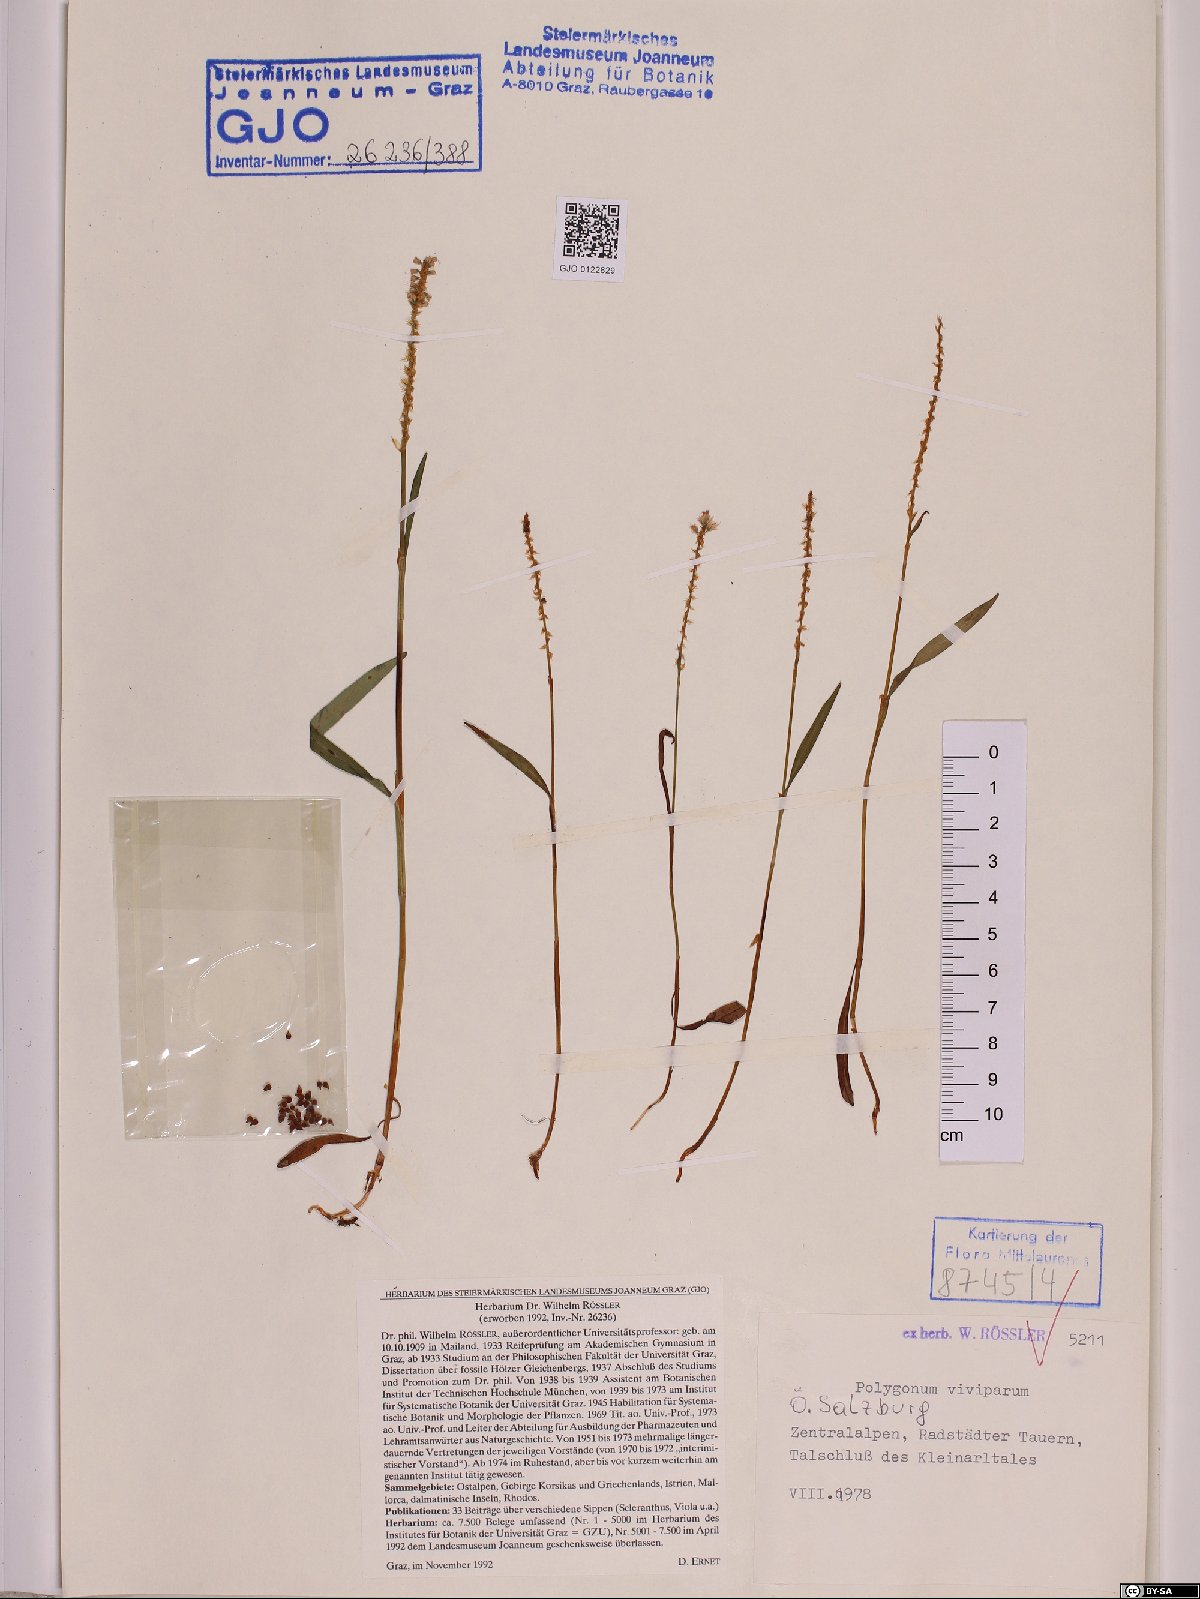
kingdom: Plantae
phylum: Tracheophyta
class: Magnoliopsida
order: Caryophyllales
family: Polygonaceae
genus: Bistorta
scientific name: Bistorta vivipara
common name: Alpine bistort
